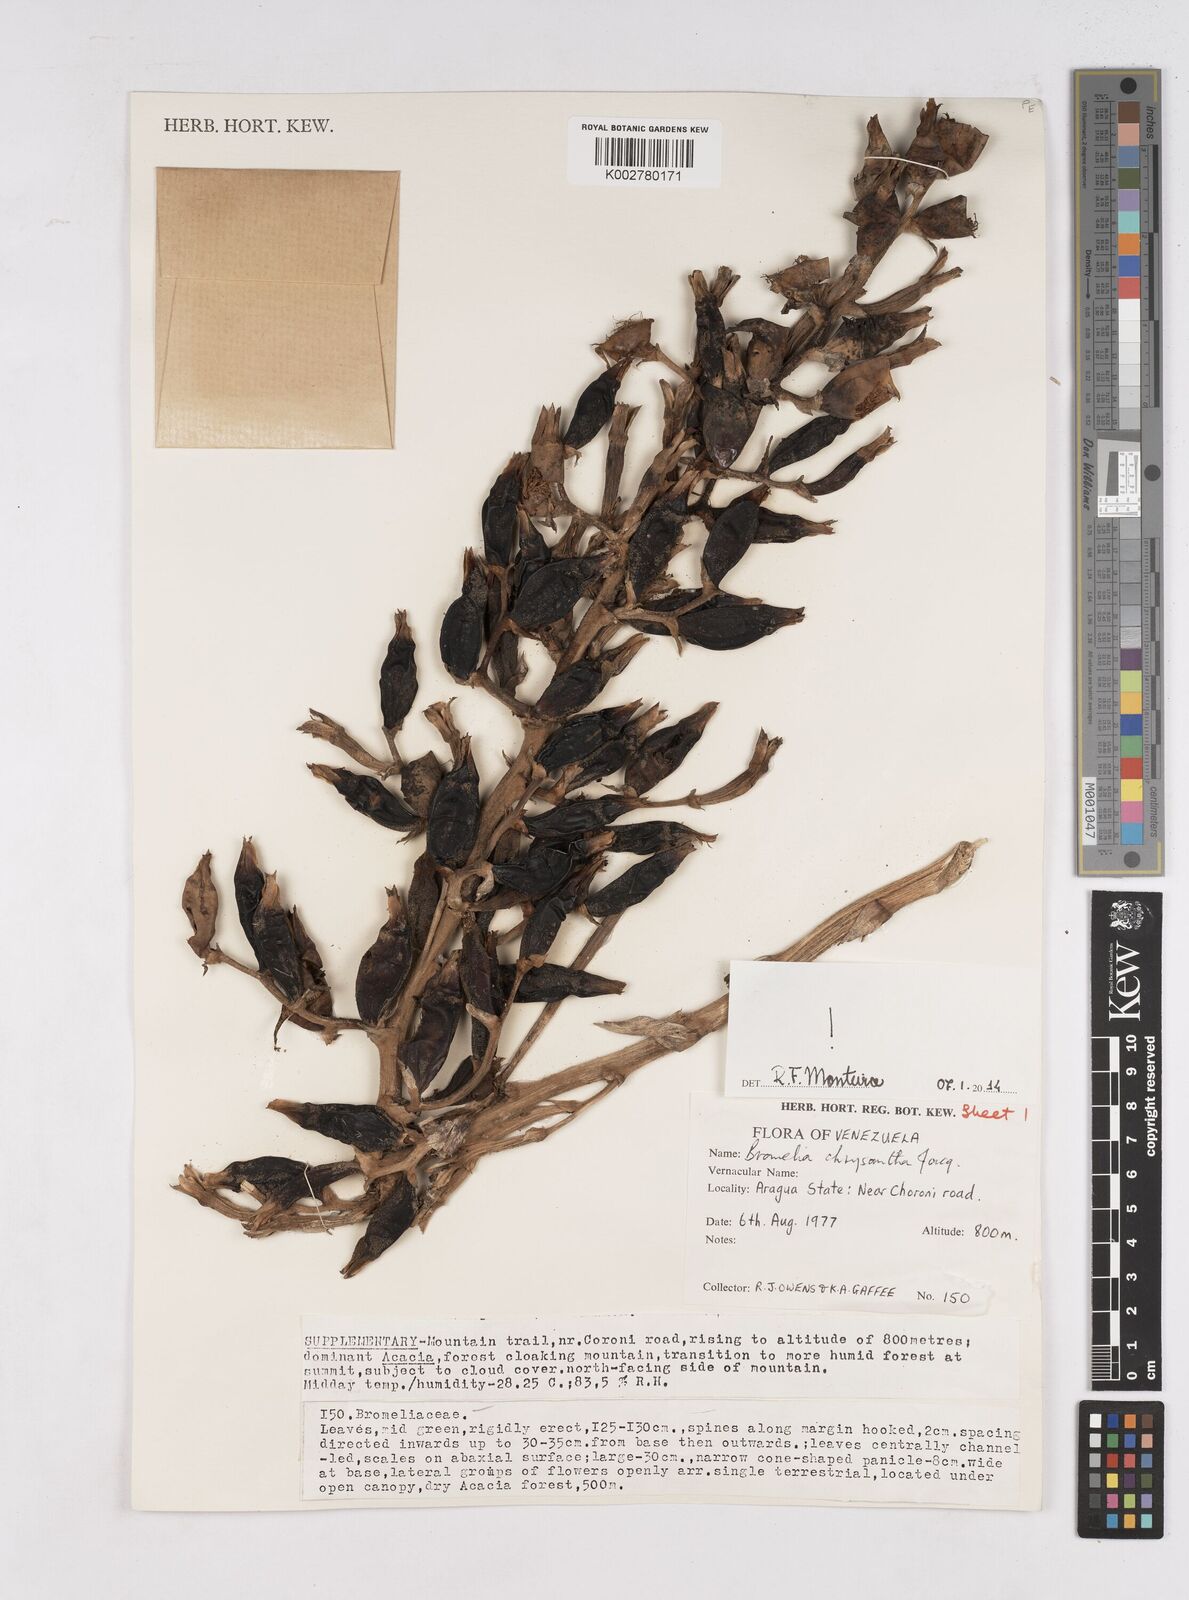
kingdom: Plantae
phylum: Tracheophyta
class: Liliopsida
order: Poales
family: Bromeliaceae
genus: Bromelia
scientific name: Bromelia chrysantha
